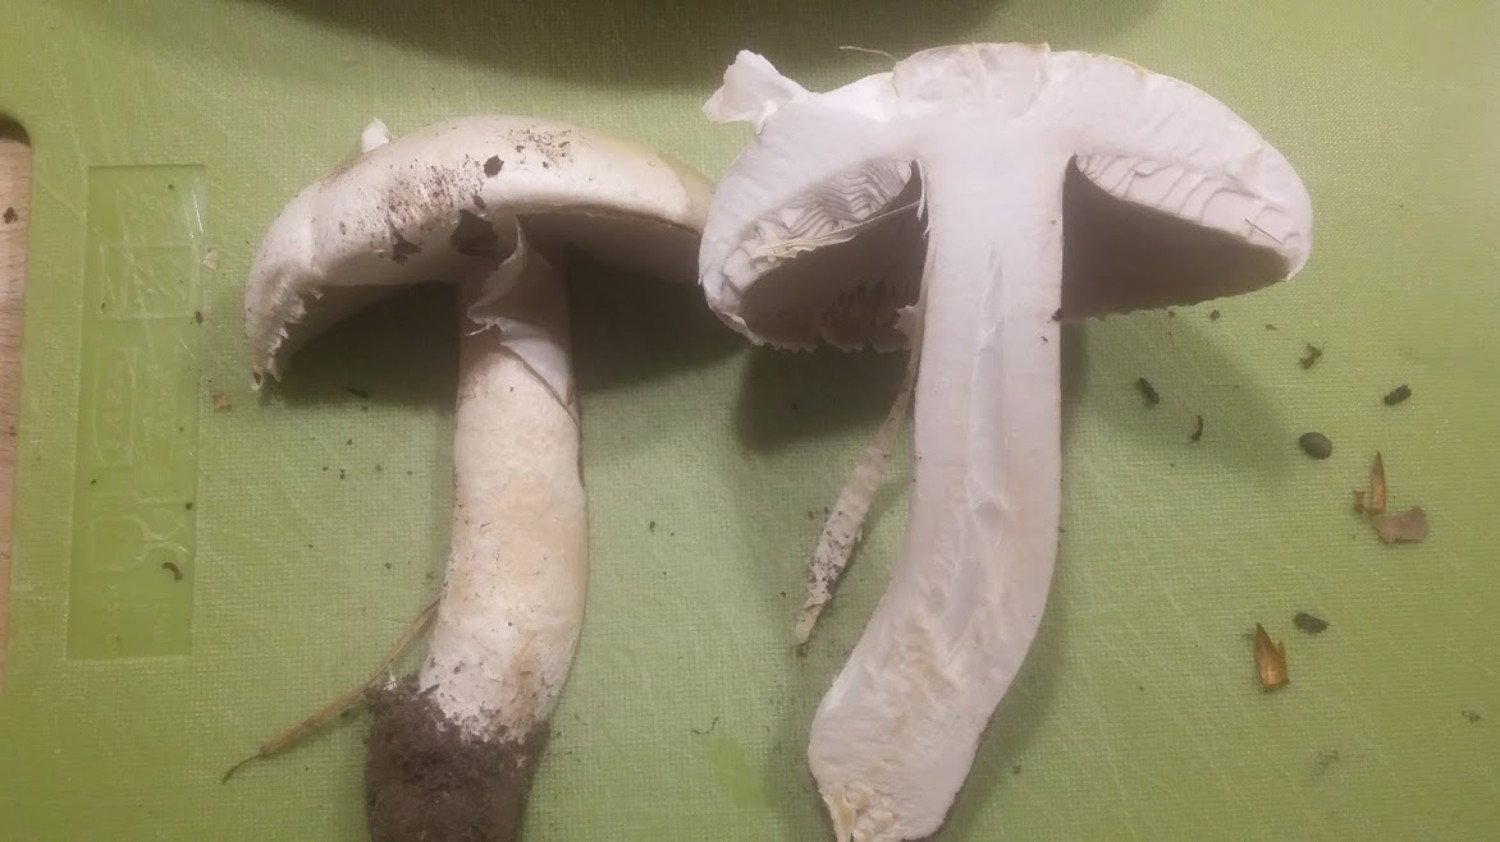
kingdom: Fungi
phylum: Basidiomycota
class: Agaricomycetes
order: Agaricales
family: Agaricaceae
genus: Agaricus
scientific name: Agaricus arvensis
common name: ager-champignon
